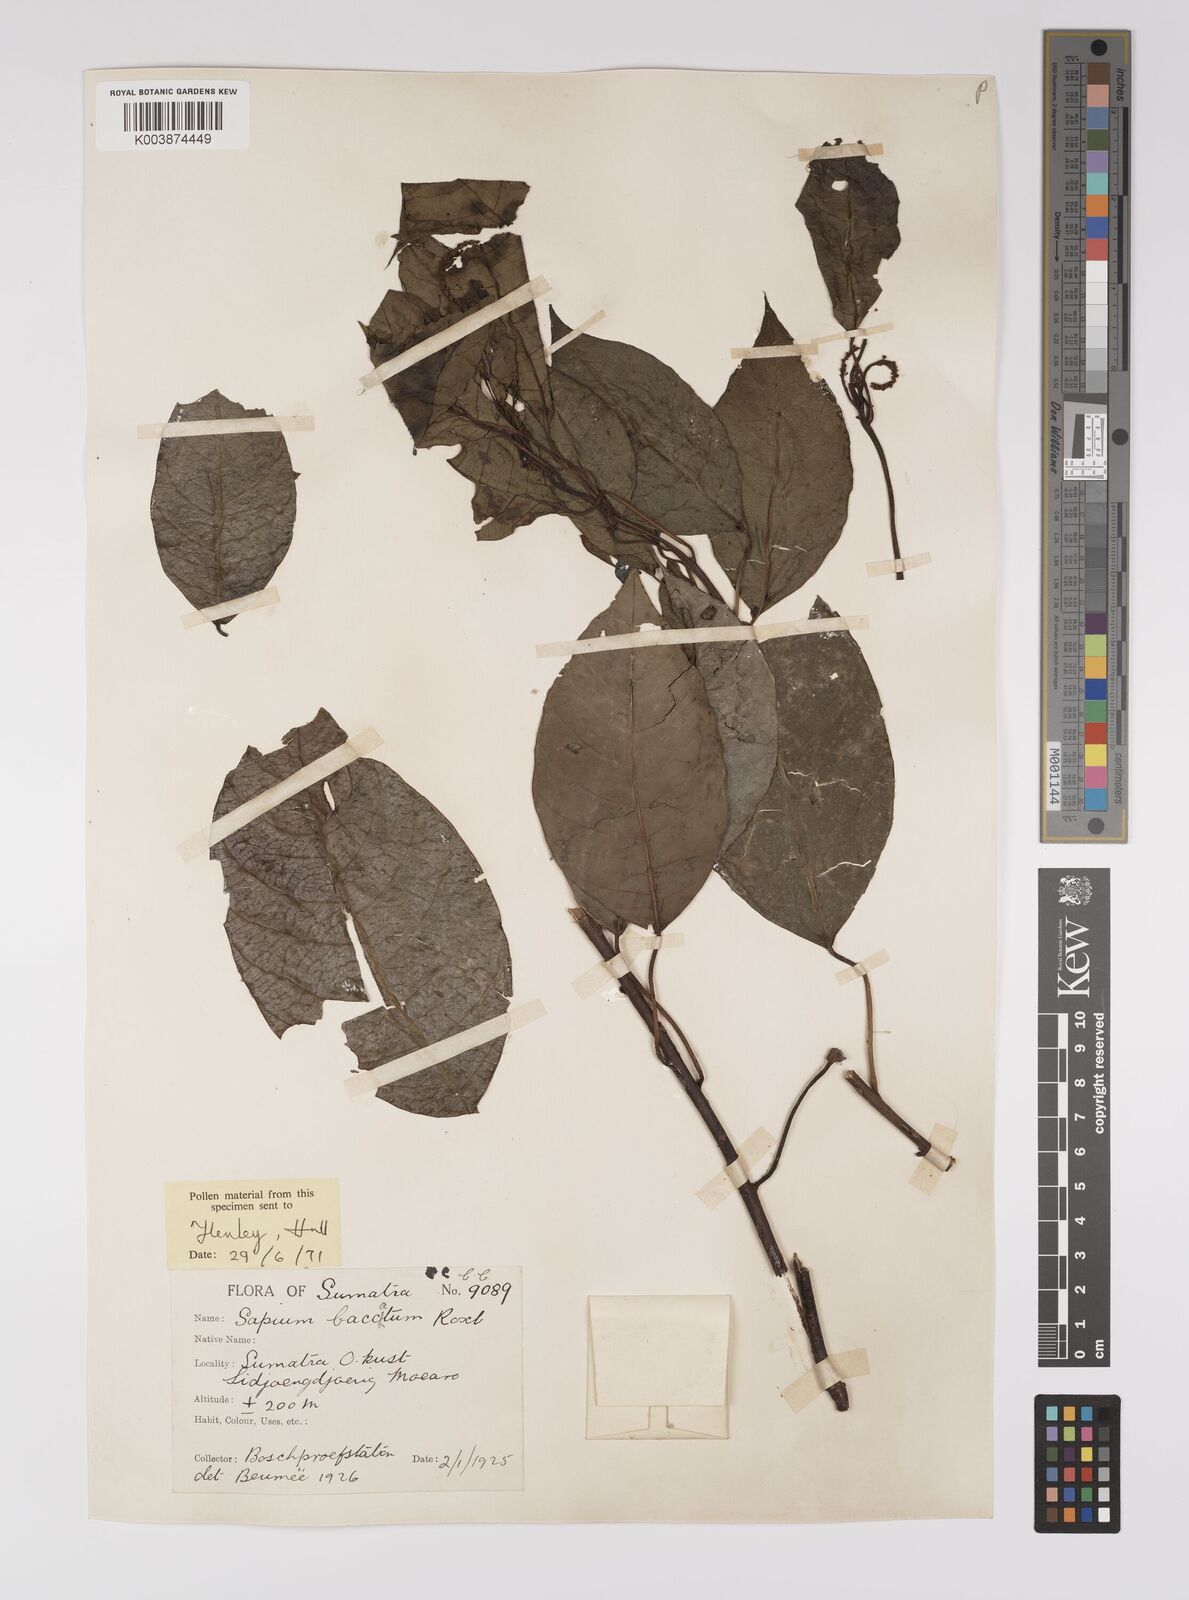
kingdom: Plantae
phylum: Tracheophyta
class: Magnoliopsida
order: Malpighiales
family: Euphorbiaceae
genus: Balakata
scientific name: Balakata baccata
